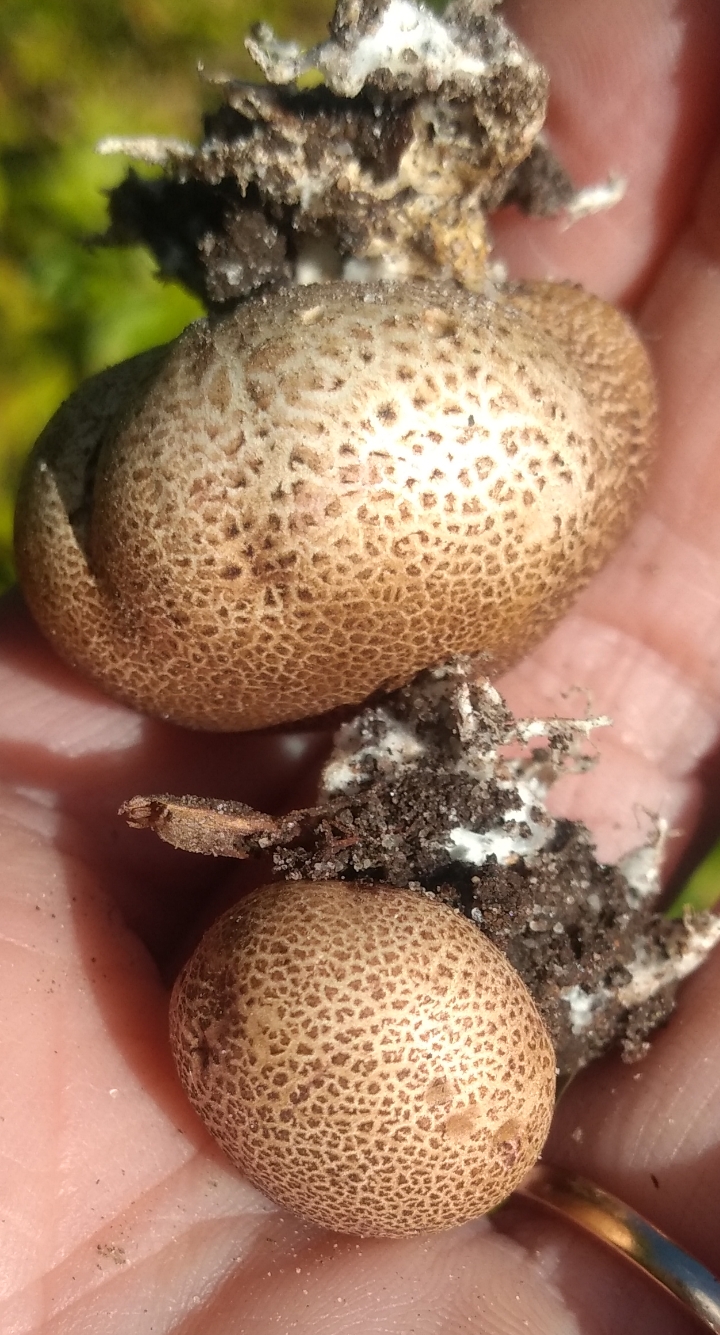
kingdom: Fungi
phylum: Basidiomycota
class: Agaricomycetes
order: Boletales
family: Sclerodermataceae
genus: Scleroderma
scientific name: Scleroderma areolatum
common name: plettet bruskbold
